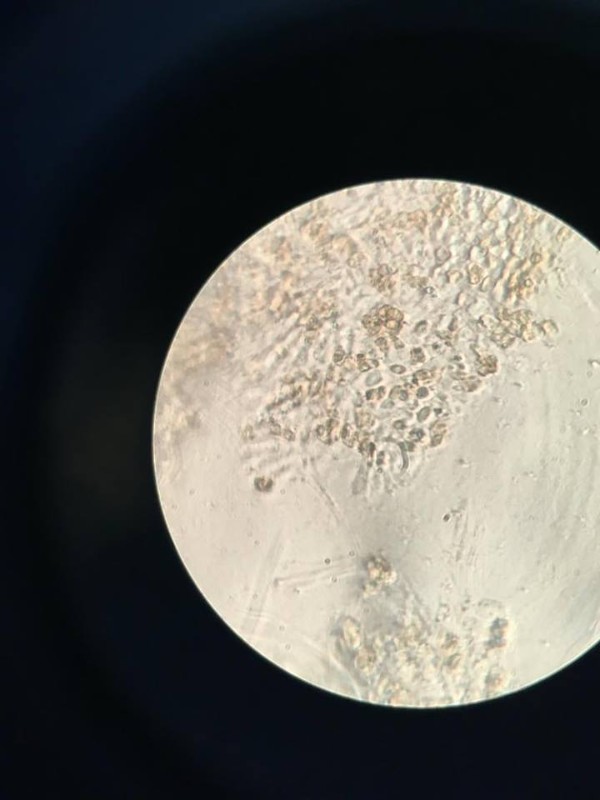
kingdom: Fungi
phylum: Basidiomycota
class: Agaricomycetes
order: Agaricales
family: Crepidotaceae
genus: Crepidotus
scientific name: Crepidotus cesatii
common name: almindelig muslingesvamp
